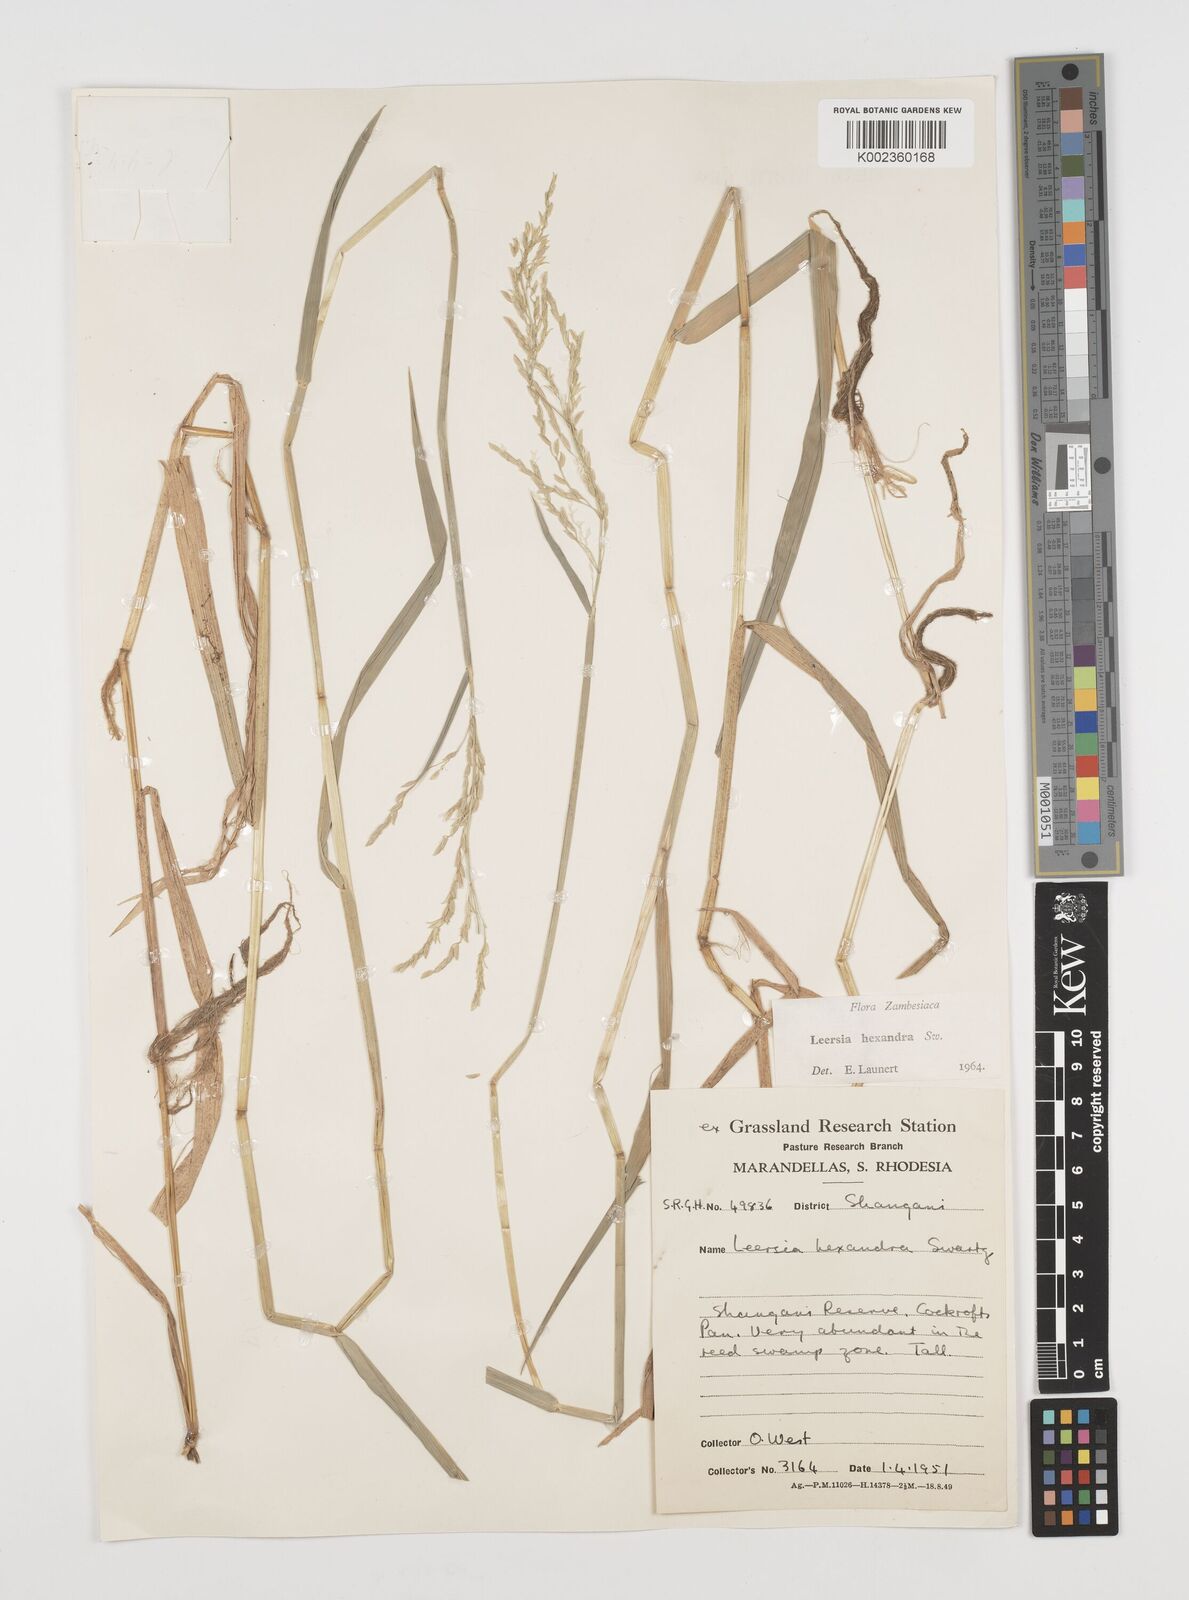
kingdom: Plantae
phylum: Tracheophyta
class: Liliopsida
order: Poales
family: Poaceae
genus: Leersia
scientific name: Leersia hexandra
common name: Southern cut grass
